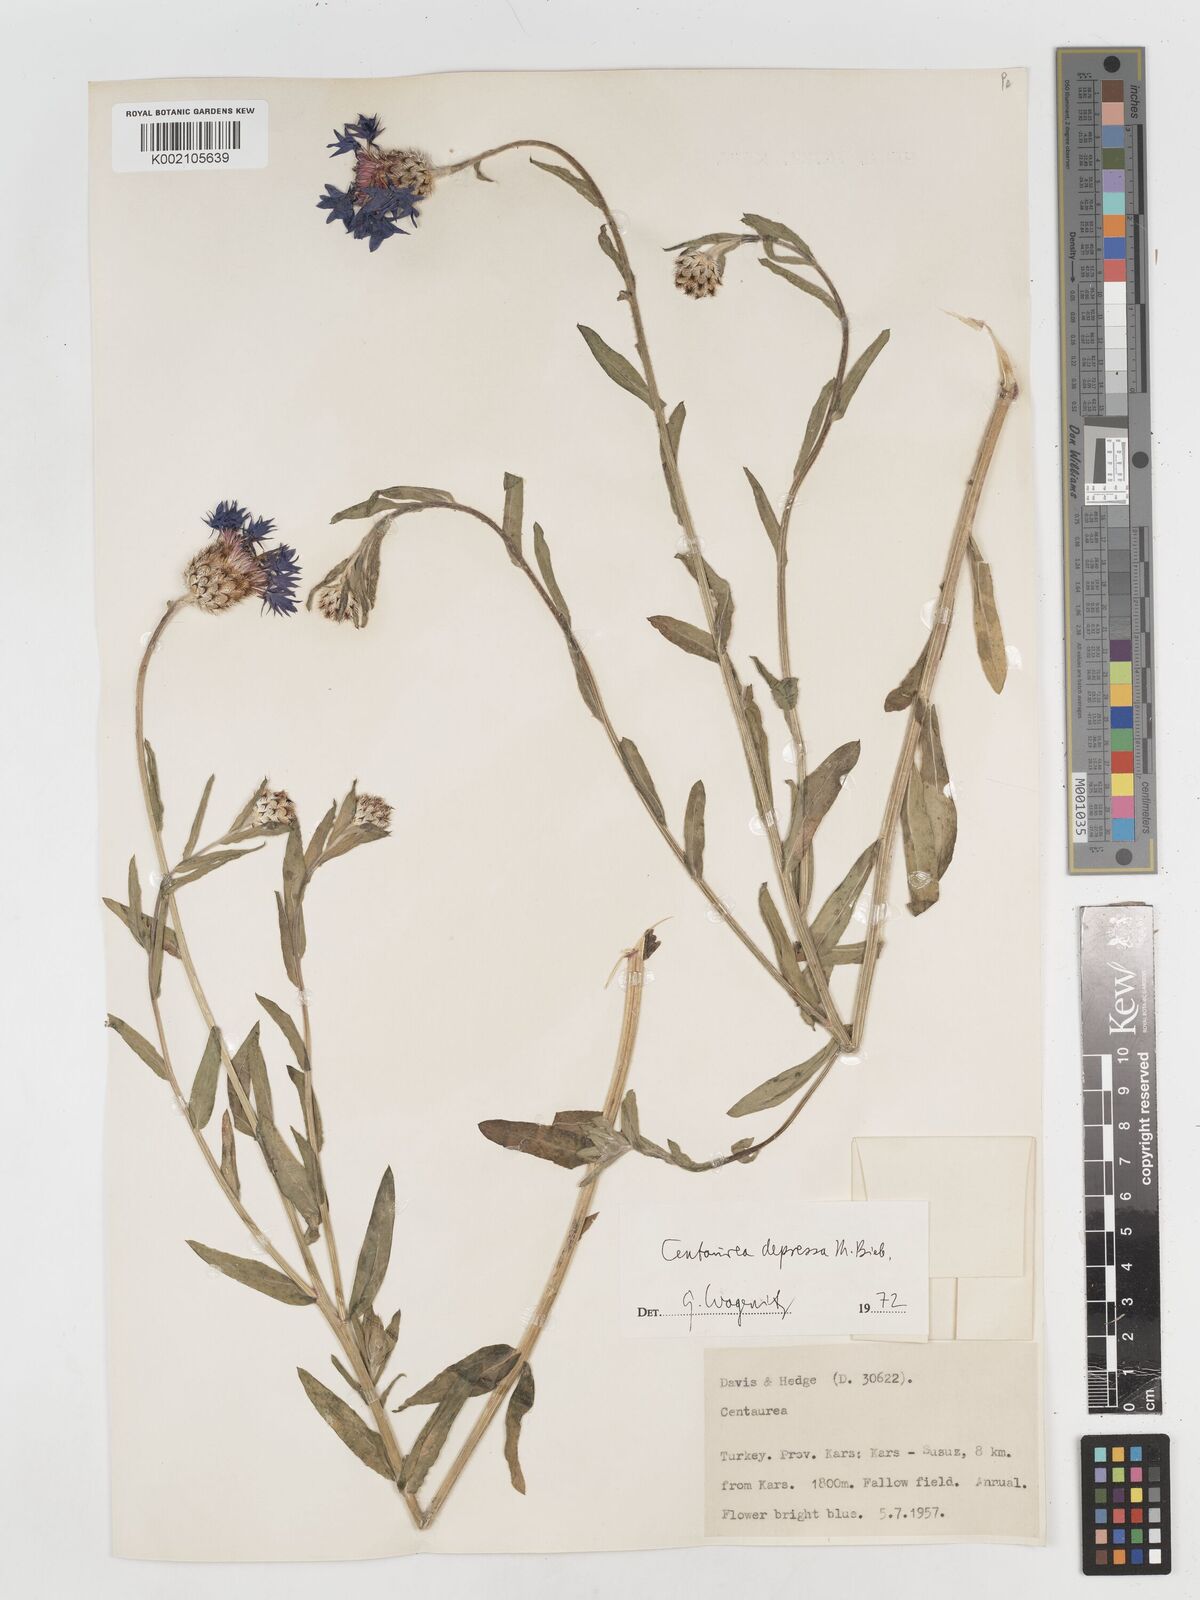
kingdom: Plantae
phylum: Tracheophyta
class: Magnoliopsida
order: Asterales
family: Asteraceae
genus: Centaurea
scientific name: Centaurea depressa
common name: Iranian knapweed
